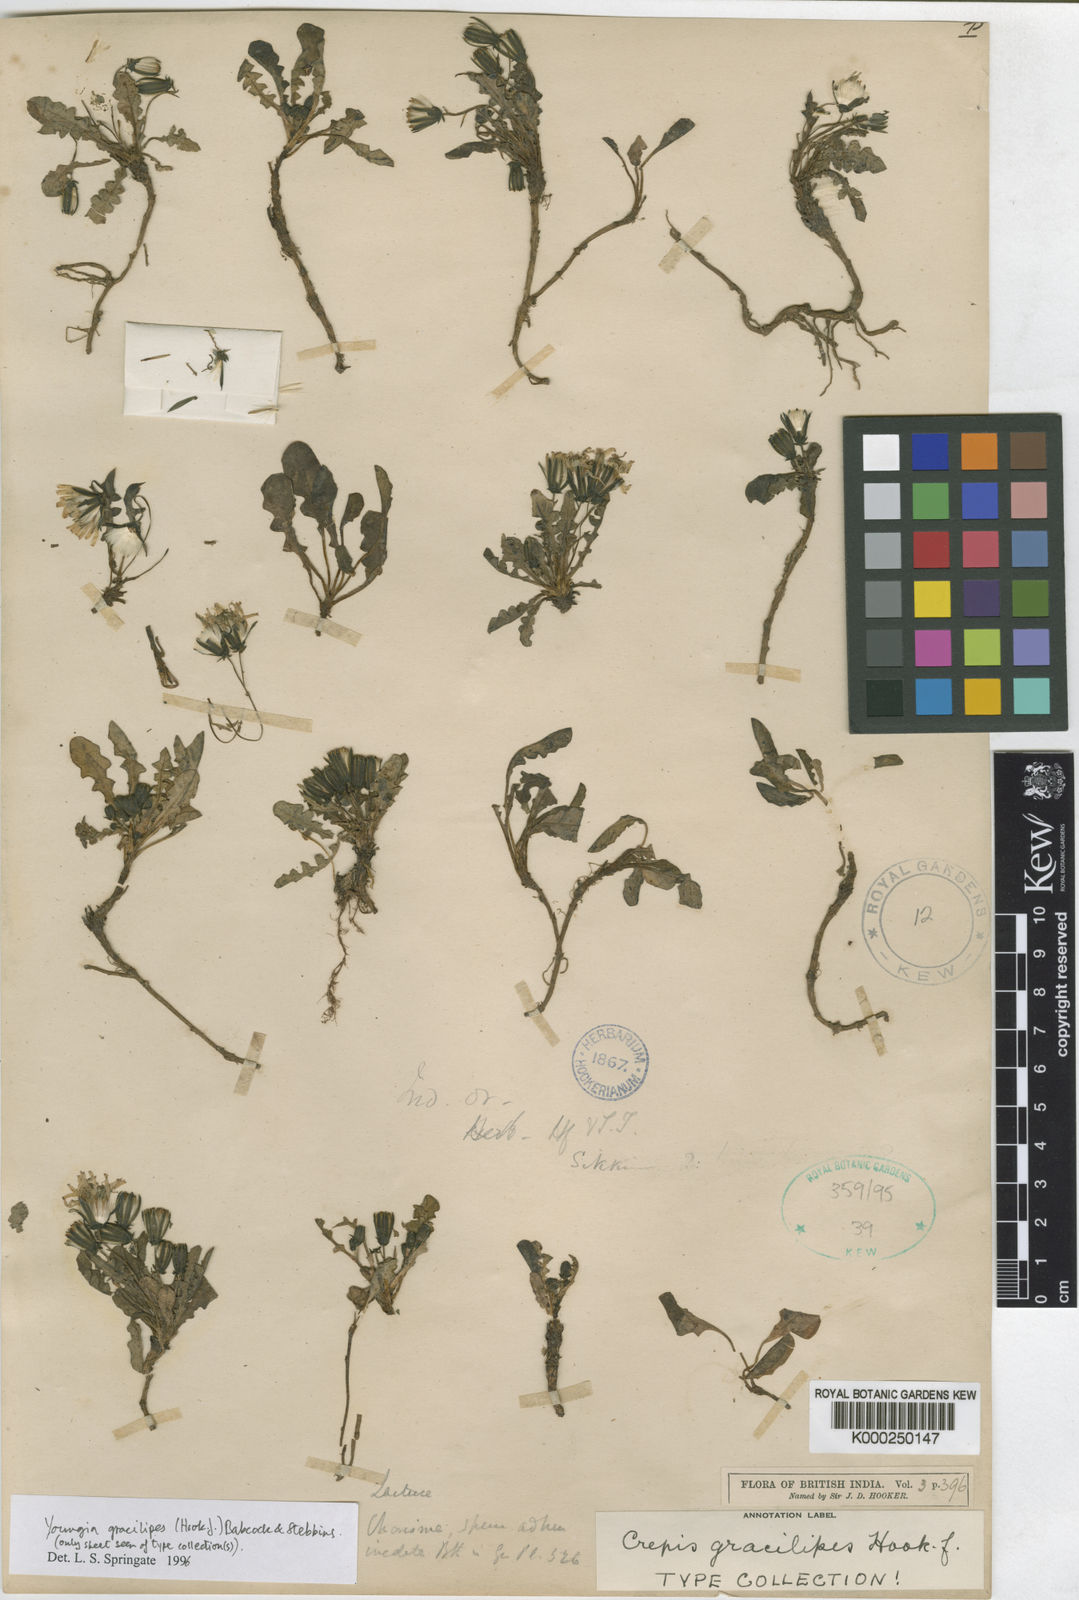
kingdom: Plantae
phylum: Tracheophyta
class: Magnoliopsida
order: Asterales
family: Asteraceae
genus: Youngia
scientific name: Youngia gracilipes
